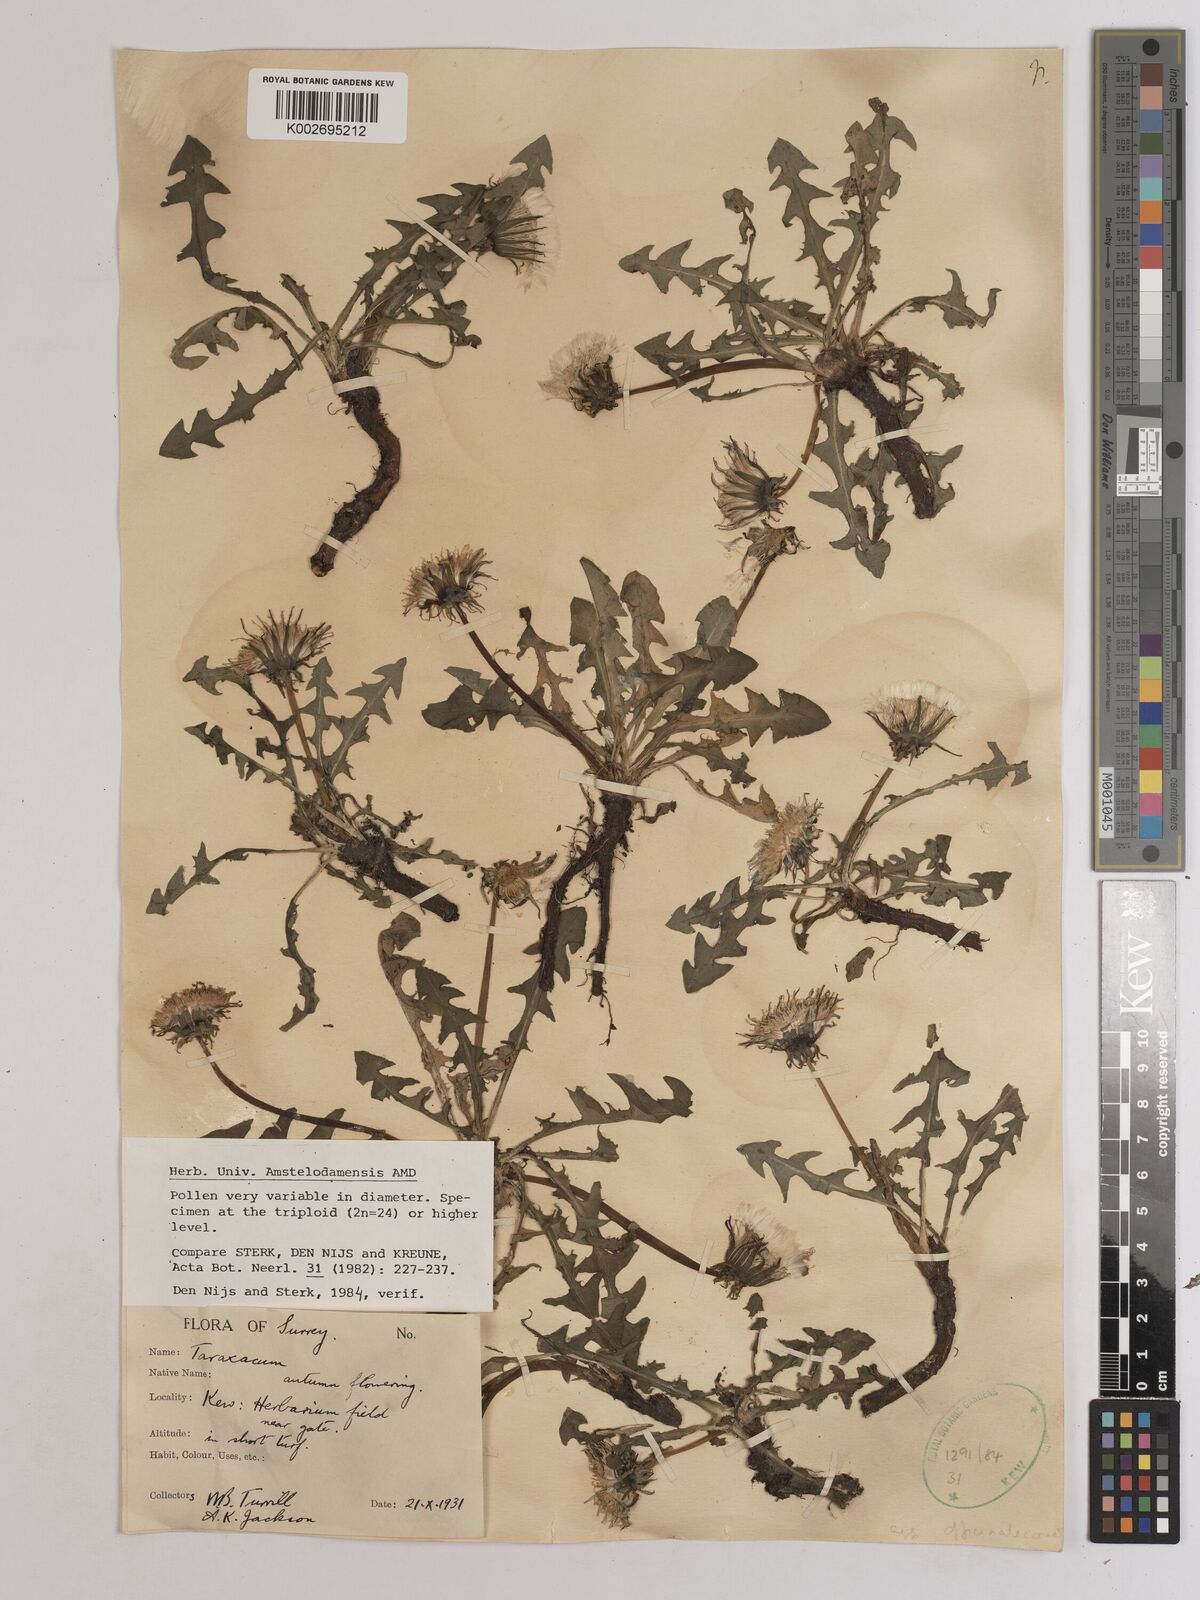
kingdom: Plantae
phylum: Tracheophyta
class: Magnoliopsida
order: Asterales
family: Asteraceae
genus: Taraxacum
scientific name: Taraxacum officinale
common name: Common dandelion
